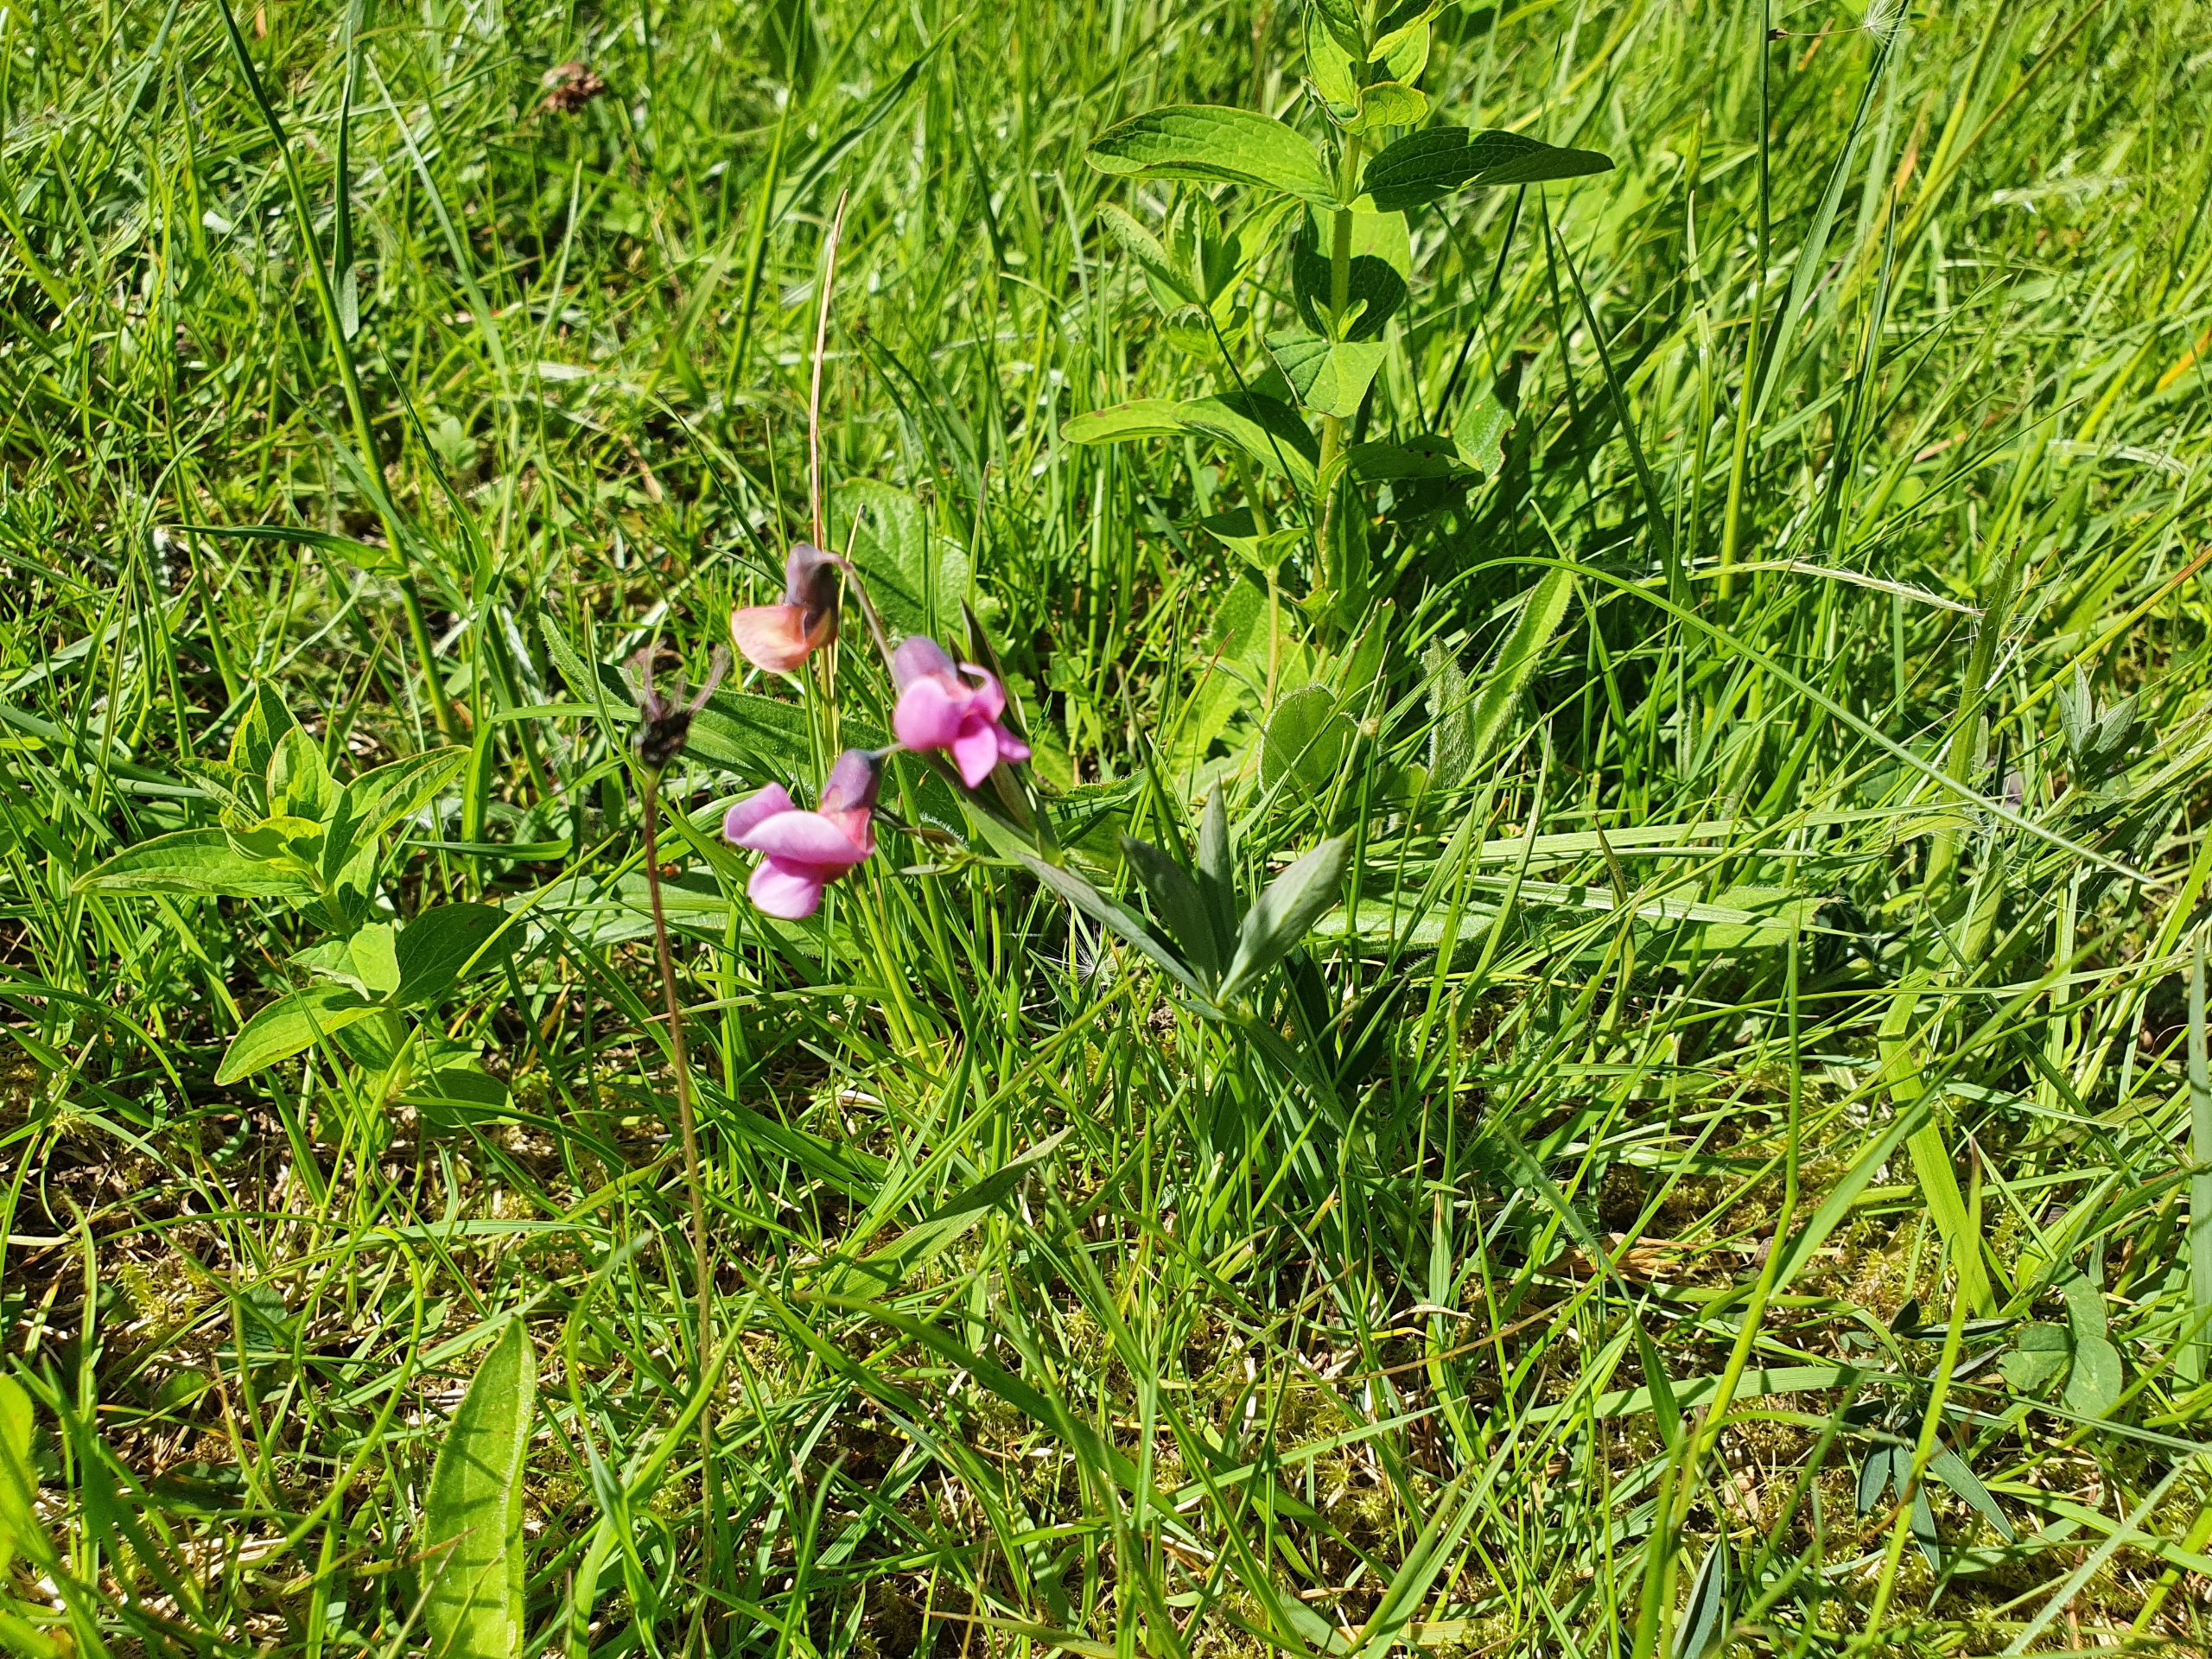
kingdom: Plantae
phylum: Tracheophyta
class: Magnoliopsida
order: Fabales
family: Fabaceae
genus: Lathyrus
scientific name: Lathyrus linifolius
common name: Krat-fladbælg
